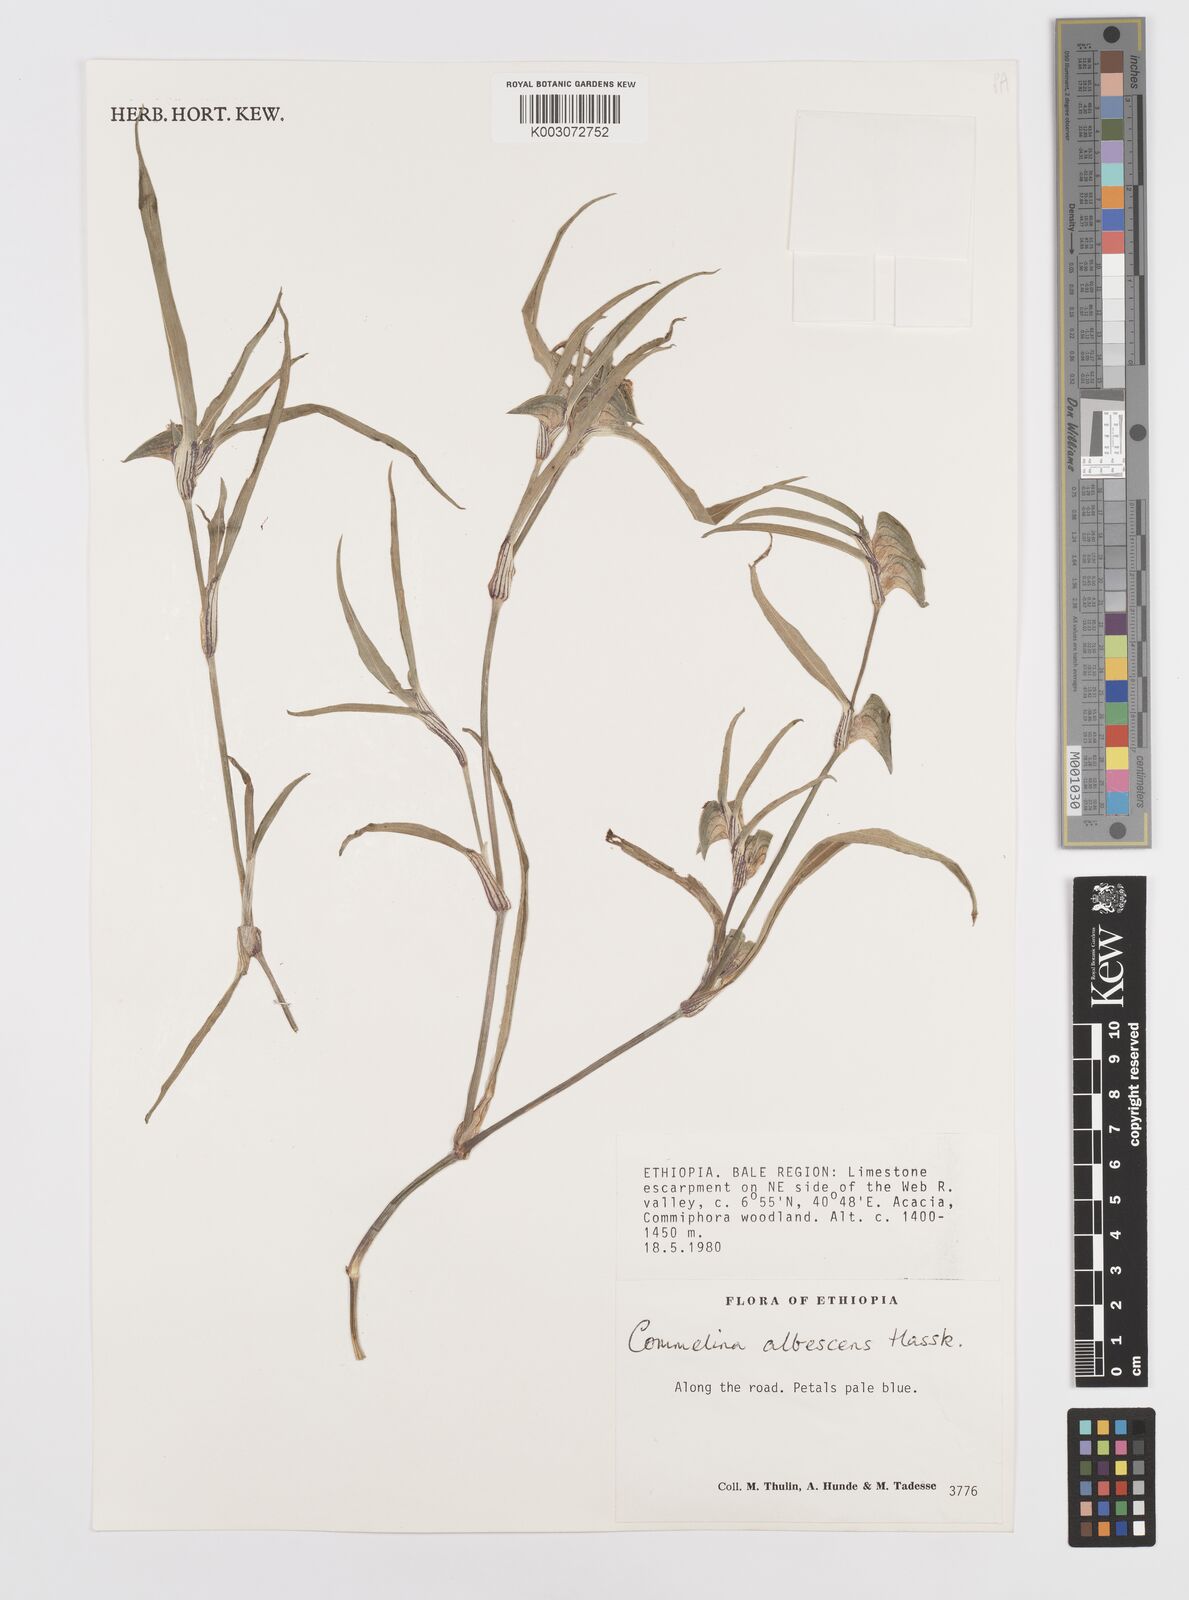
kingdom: Plantae
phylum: Tracheophyta
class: Liliopsida
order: Commelinales
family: Commelinaceae
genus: Commelina
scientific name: Commelina albescens
